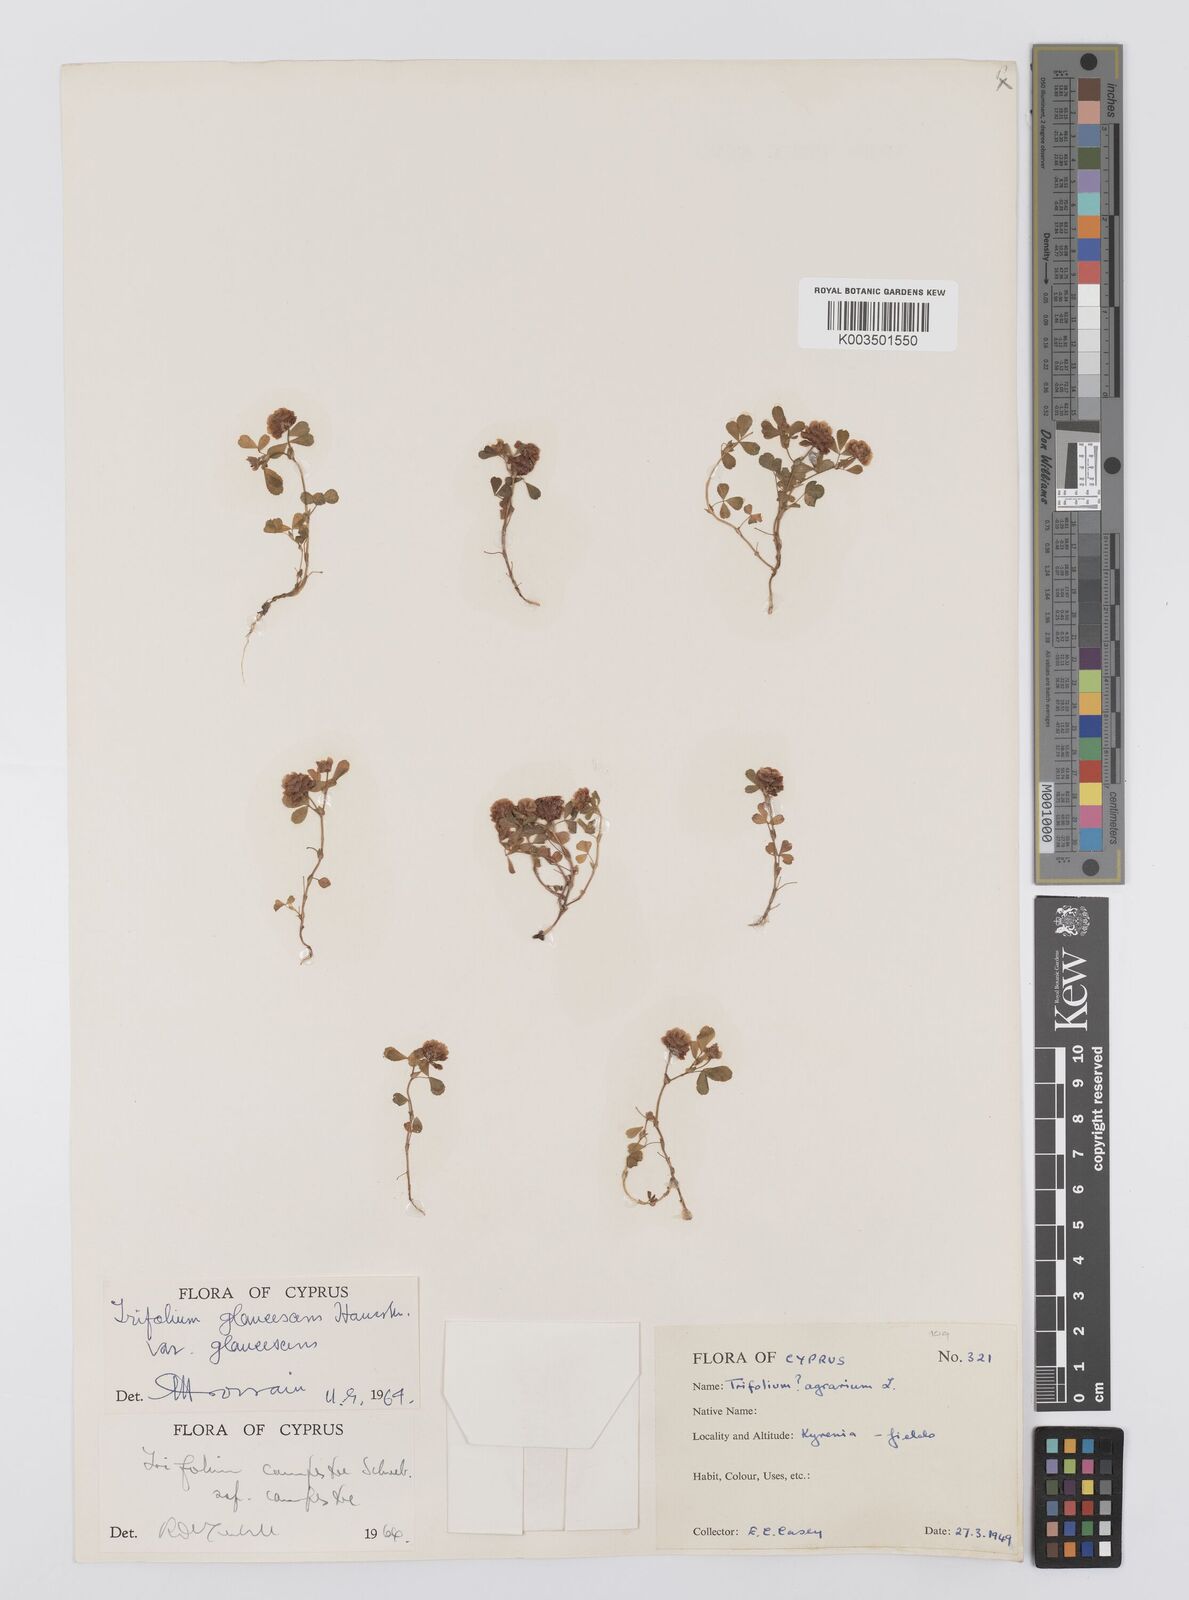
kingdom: Plantae
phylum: Tracheophyta
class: Magnoliopsida
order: Fabales
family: Fabaceae
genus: Trifolium
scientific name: Trifolium campestre
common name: Field clover
